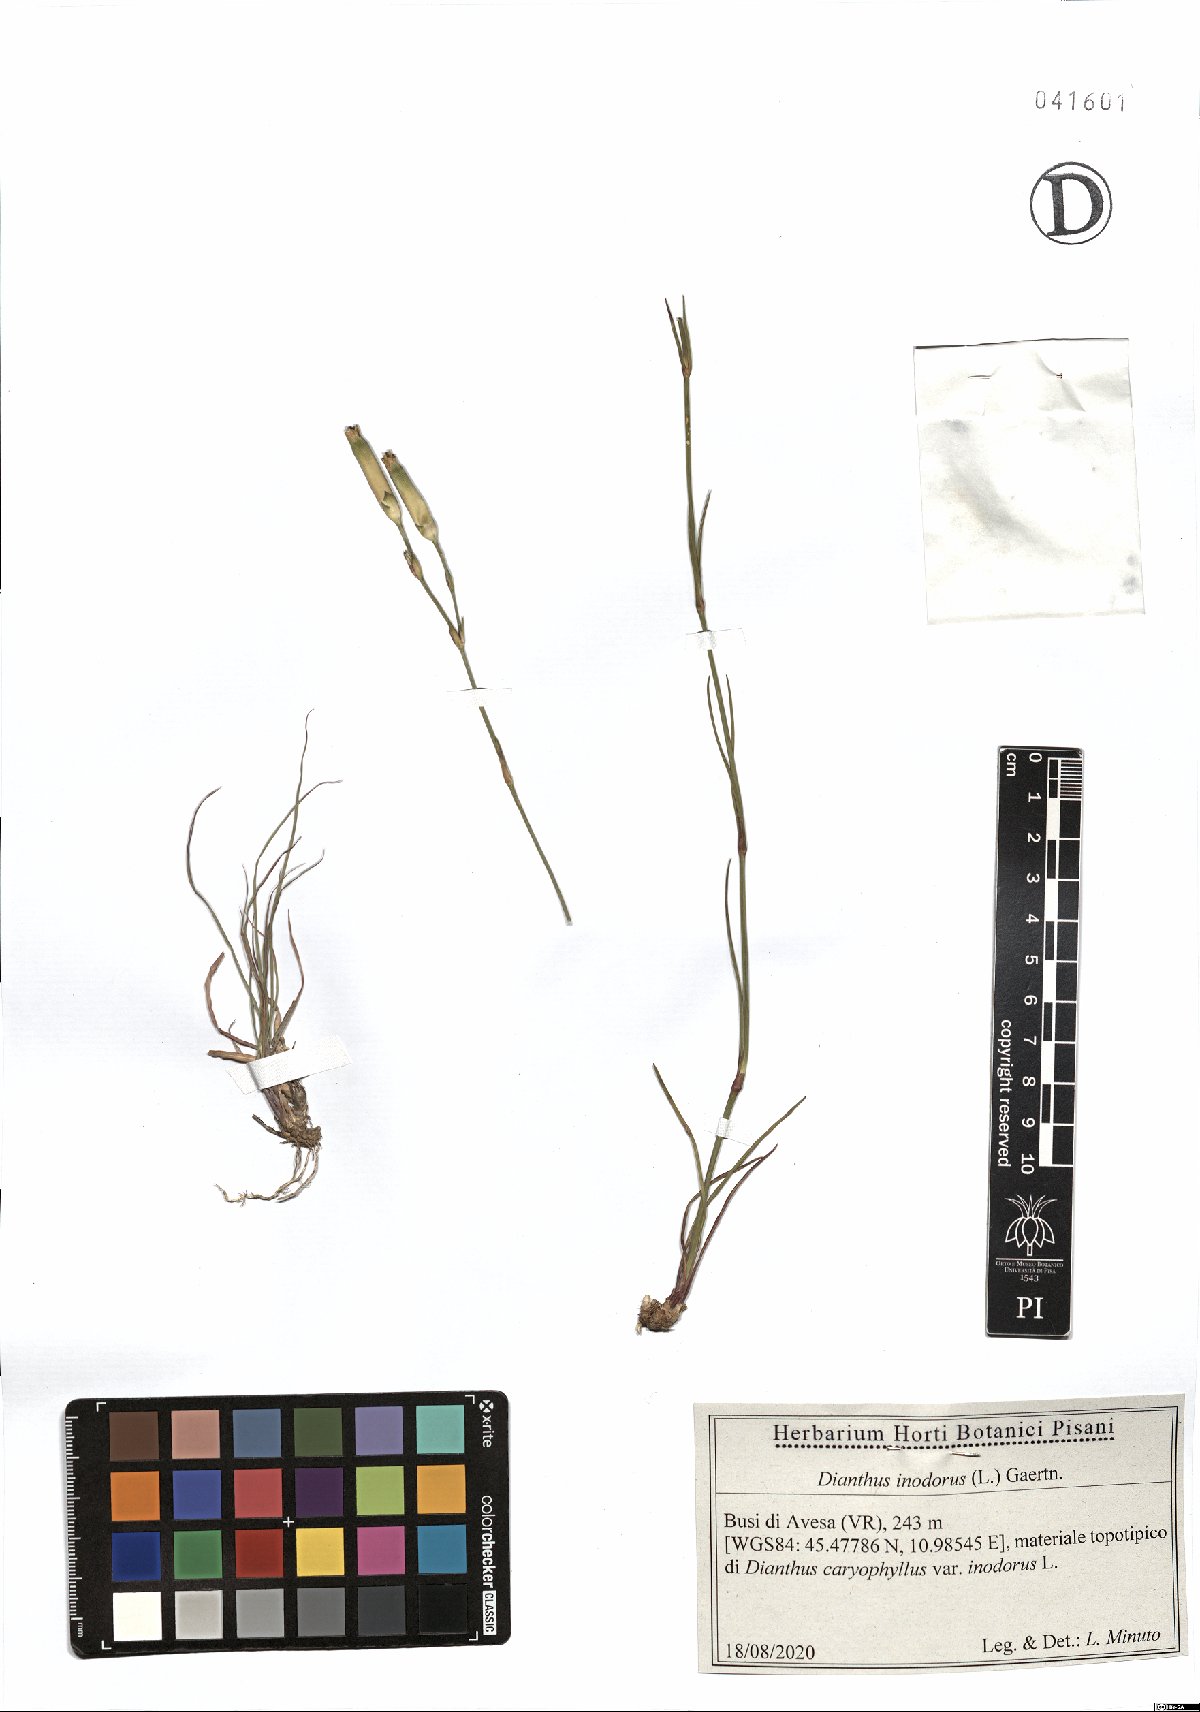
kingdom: Plantae
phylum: Tracheophyta
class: Magnoliopsida
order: Caryophyllales
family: Caryophyllaceae
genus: Dianthus
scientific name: Dianthus sylvestris
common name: Wood pink
